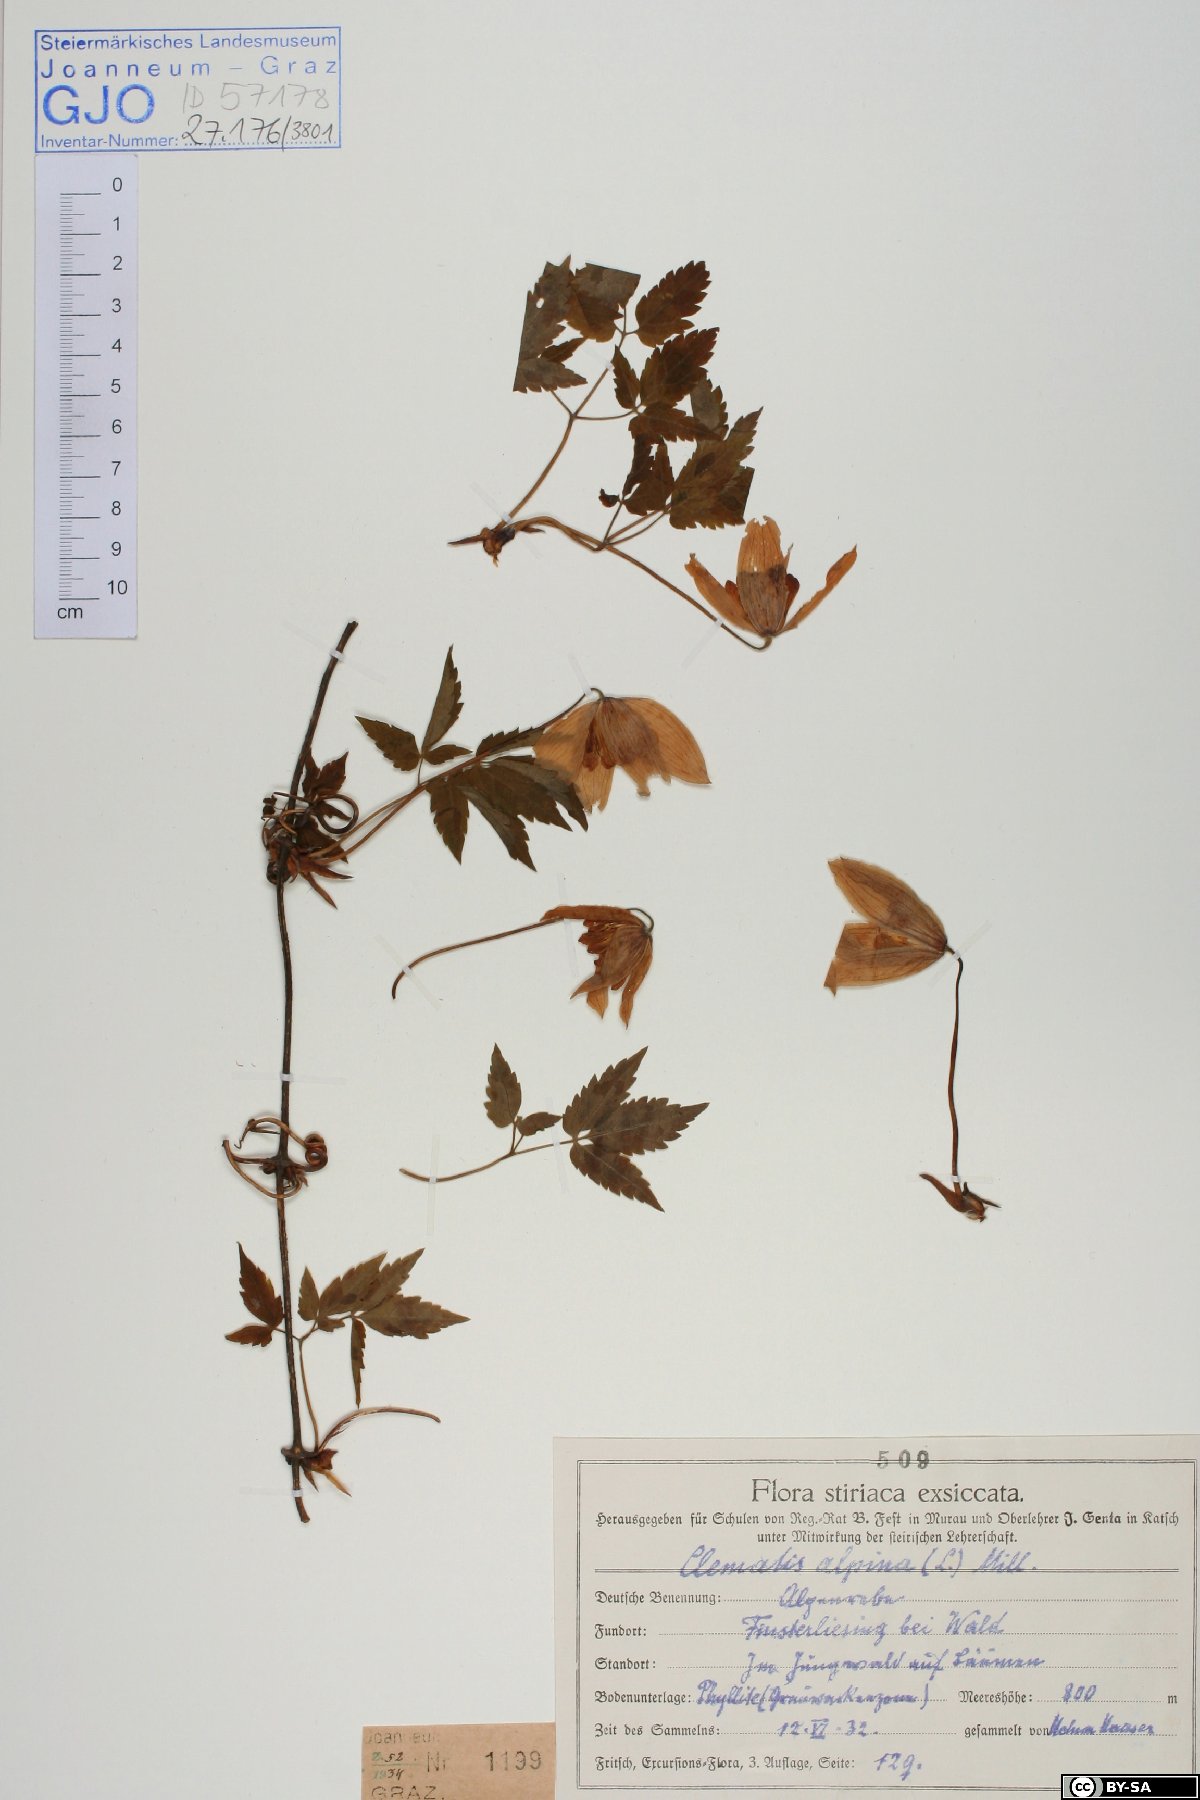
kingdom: Plantae
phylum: Tracheophyta
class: Magnoliopsida
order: Ranunculales
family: Ranunculaceae
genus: Clematis
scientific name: Clematis alpina
